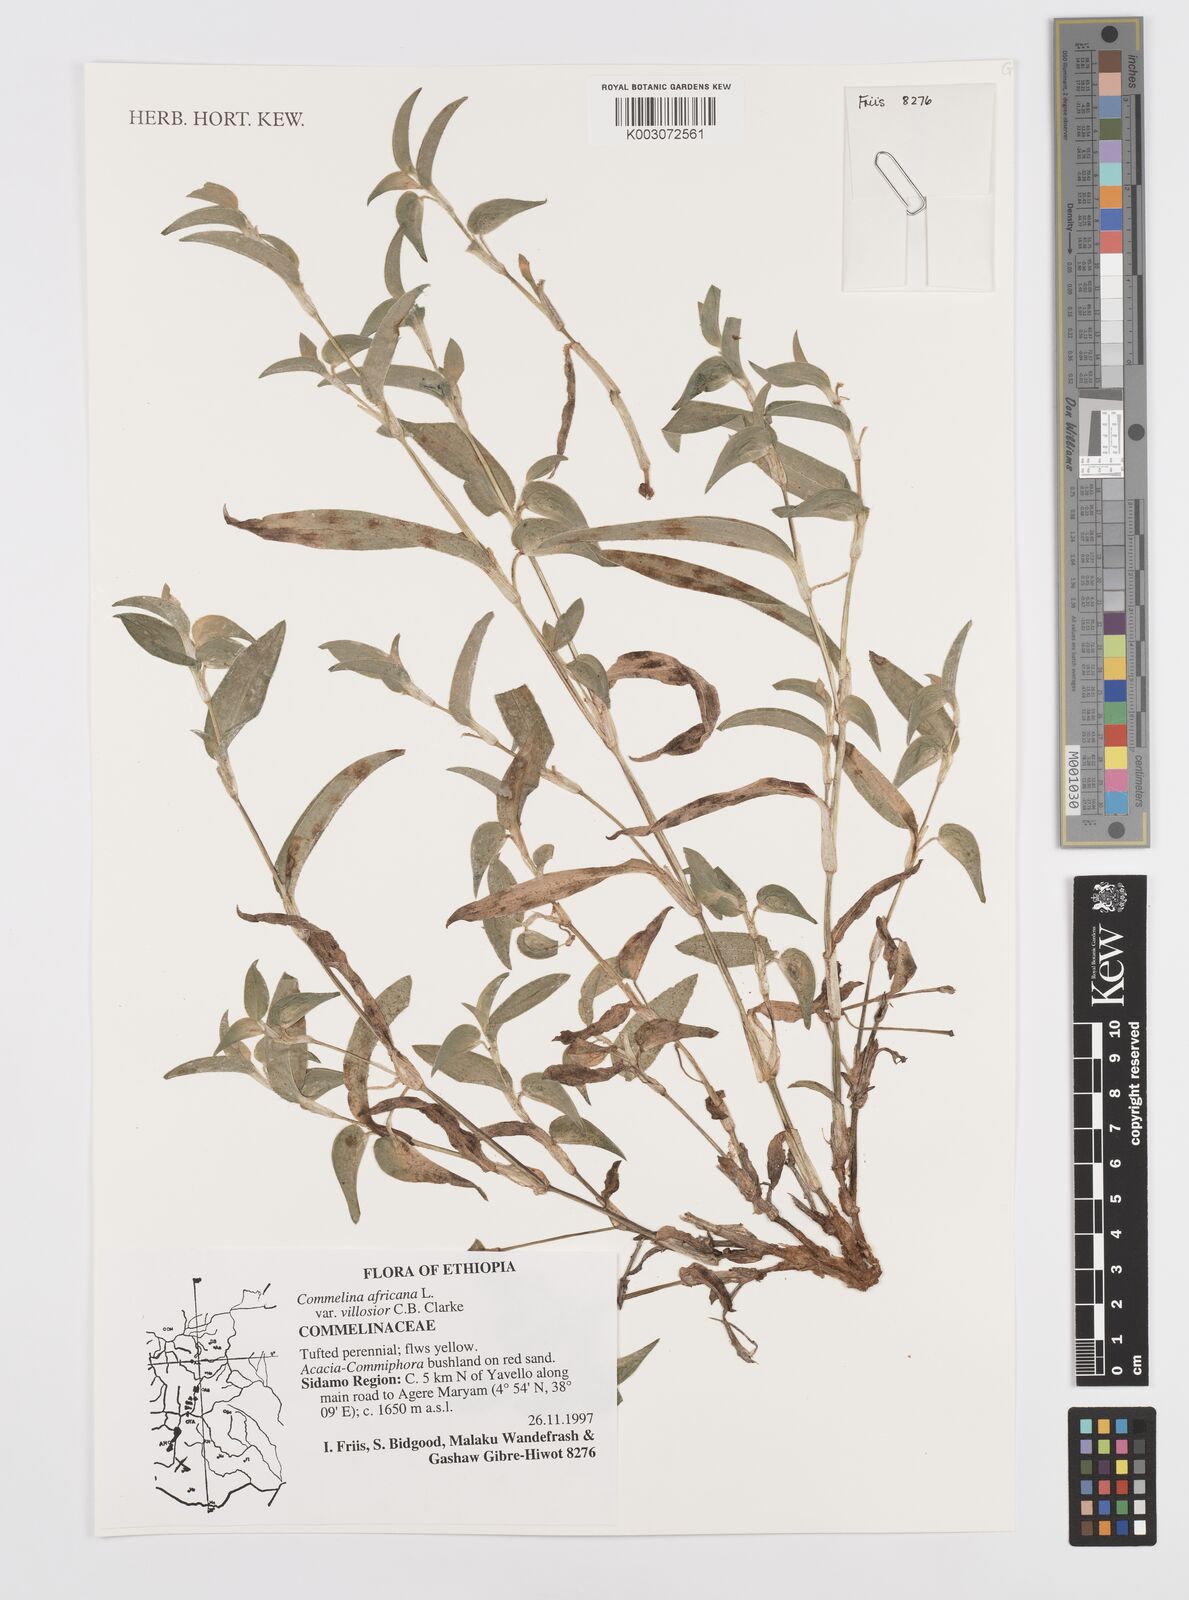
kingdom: Plantae
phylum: Tracheophyta
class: Liliopsida
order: Commelinales
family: Commelinaceae
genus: Commelina
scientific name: Commelina africana
